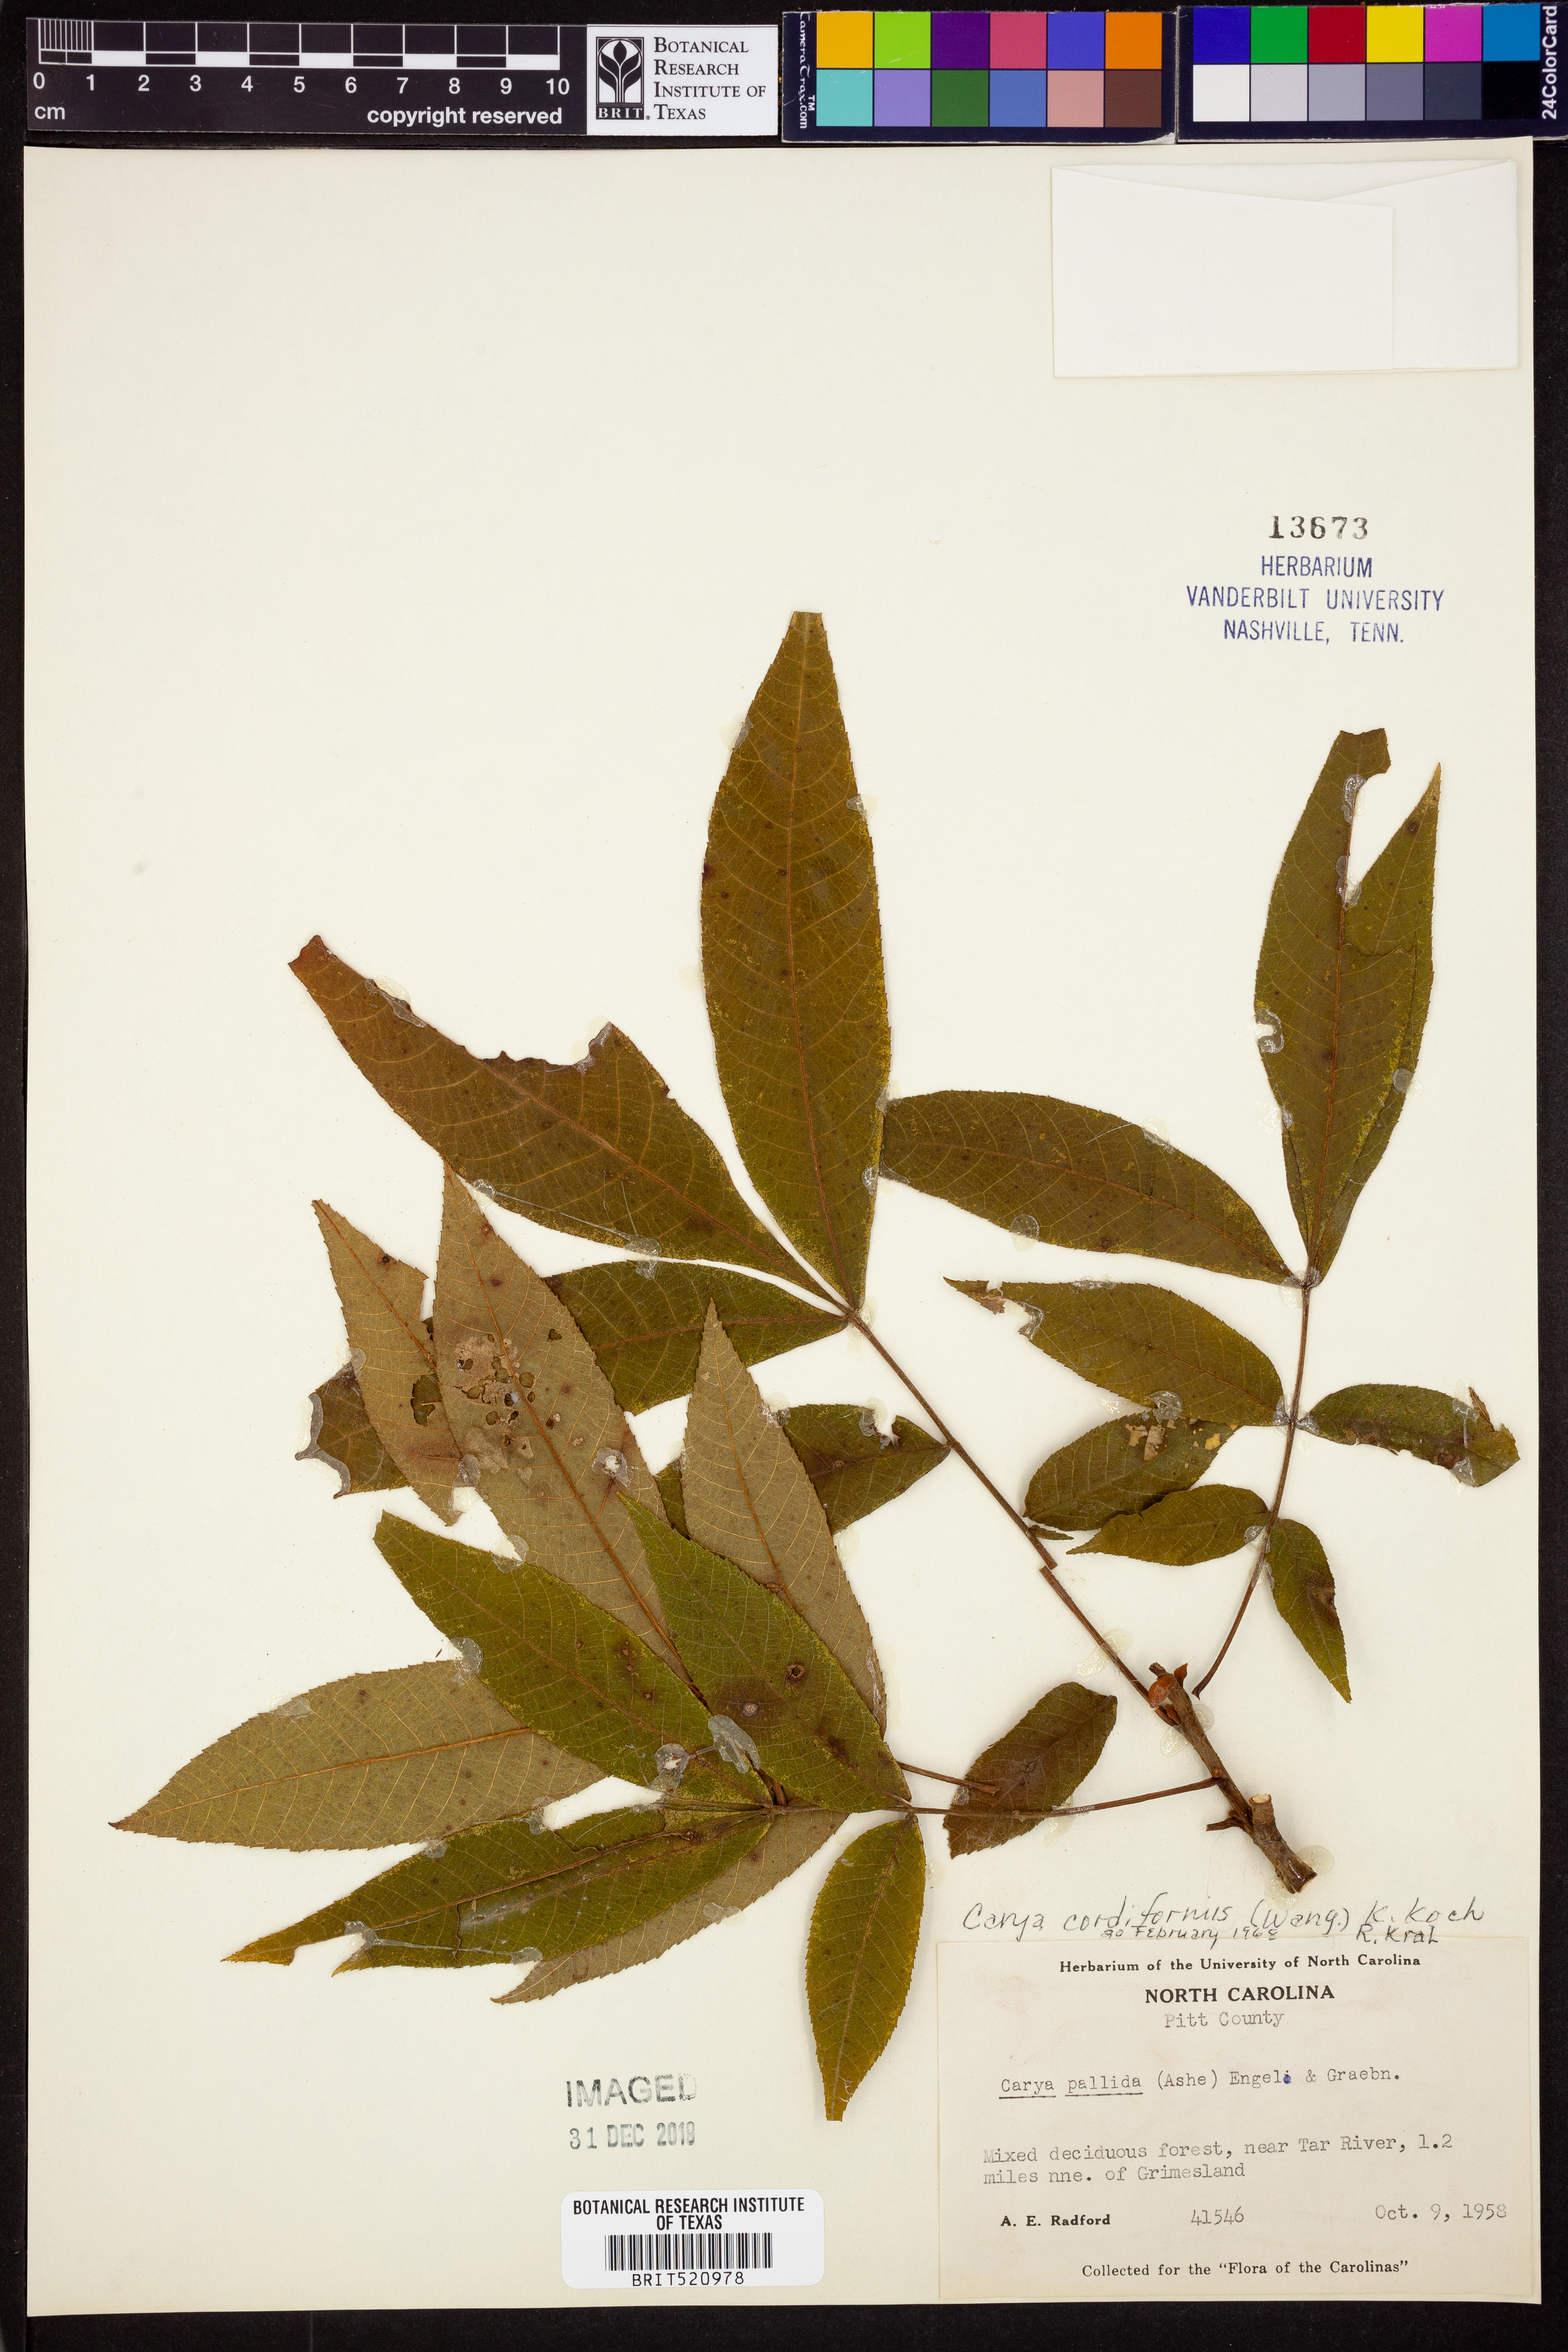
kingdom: Plantae
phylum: Tracheophyta
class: Magnoliopsida
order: Fagales
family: Juglandaceae
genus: Carya
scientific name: Carya cordiformis
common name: Bitternut hickory
